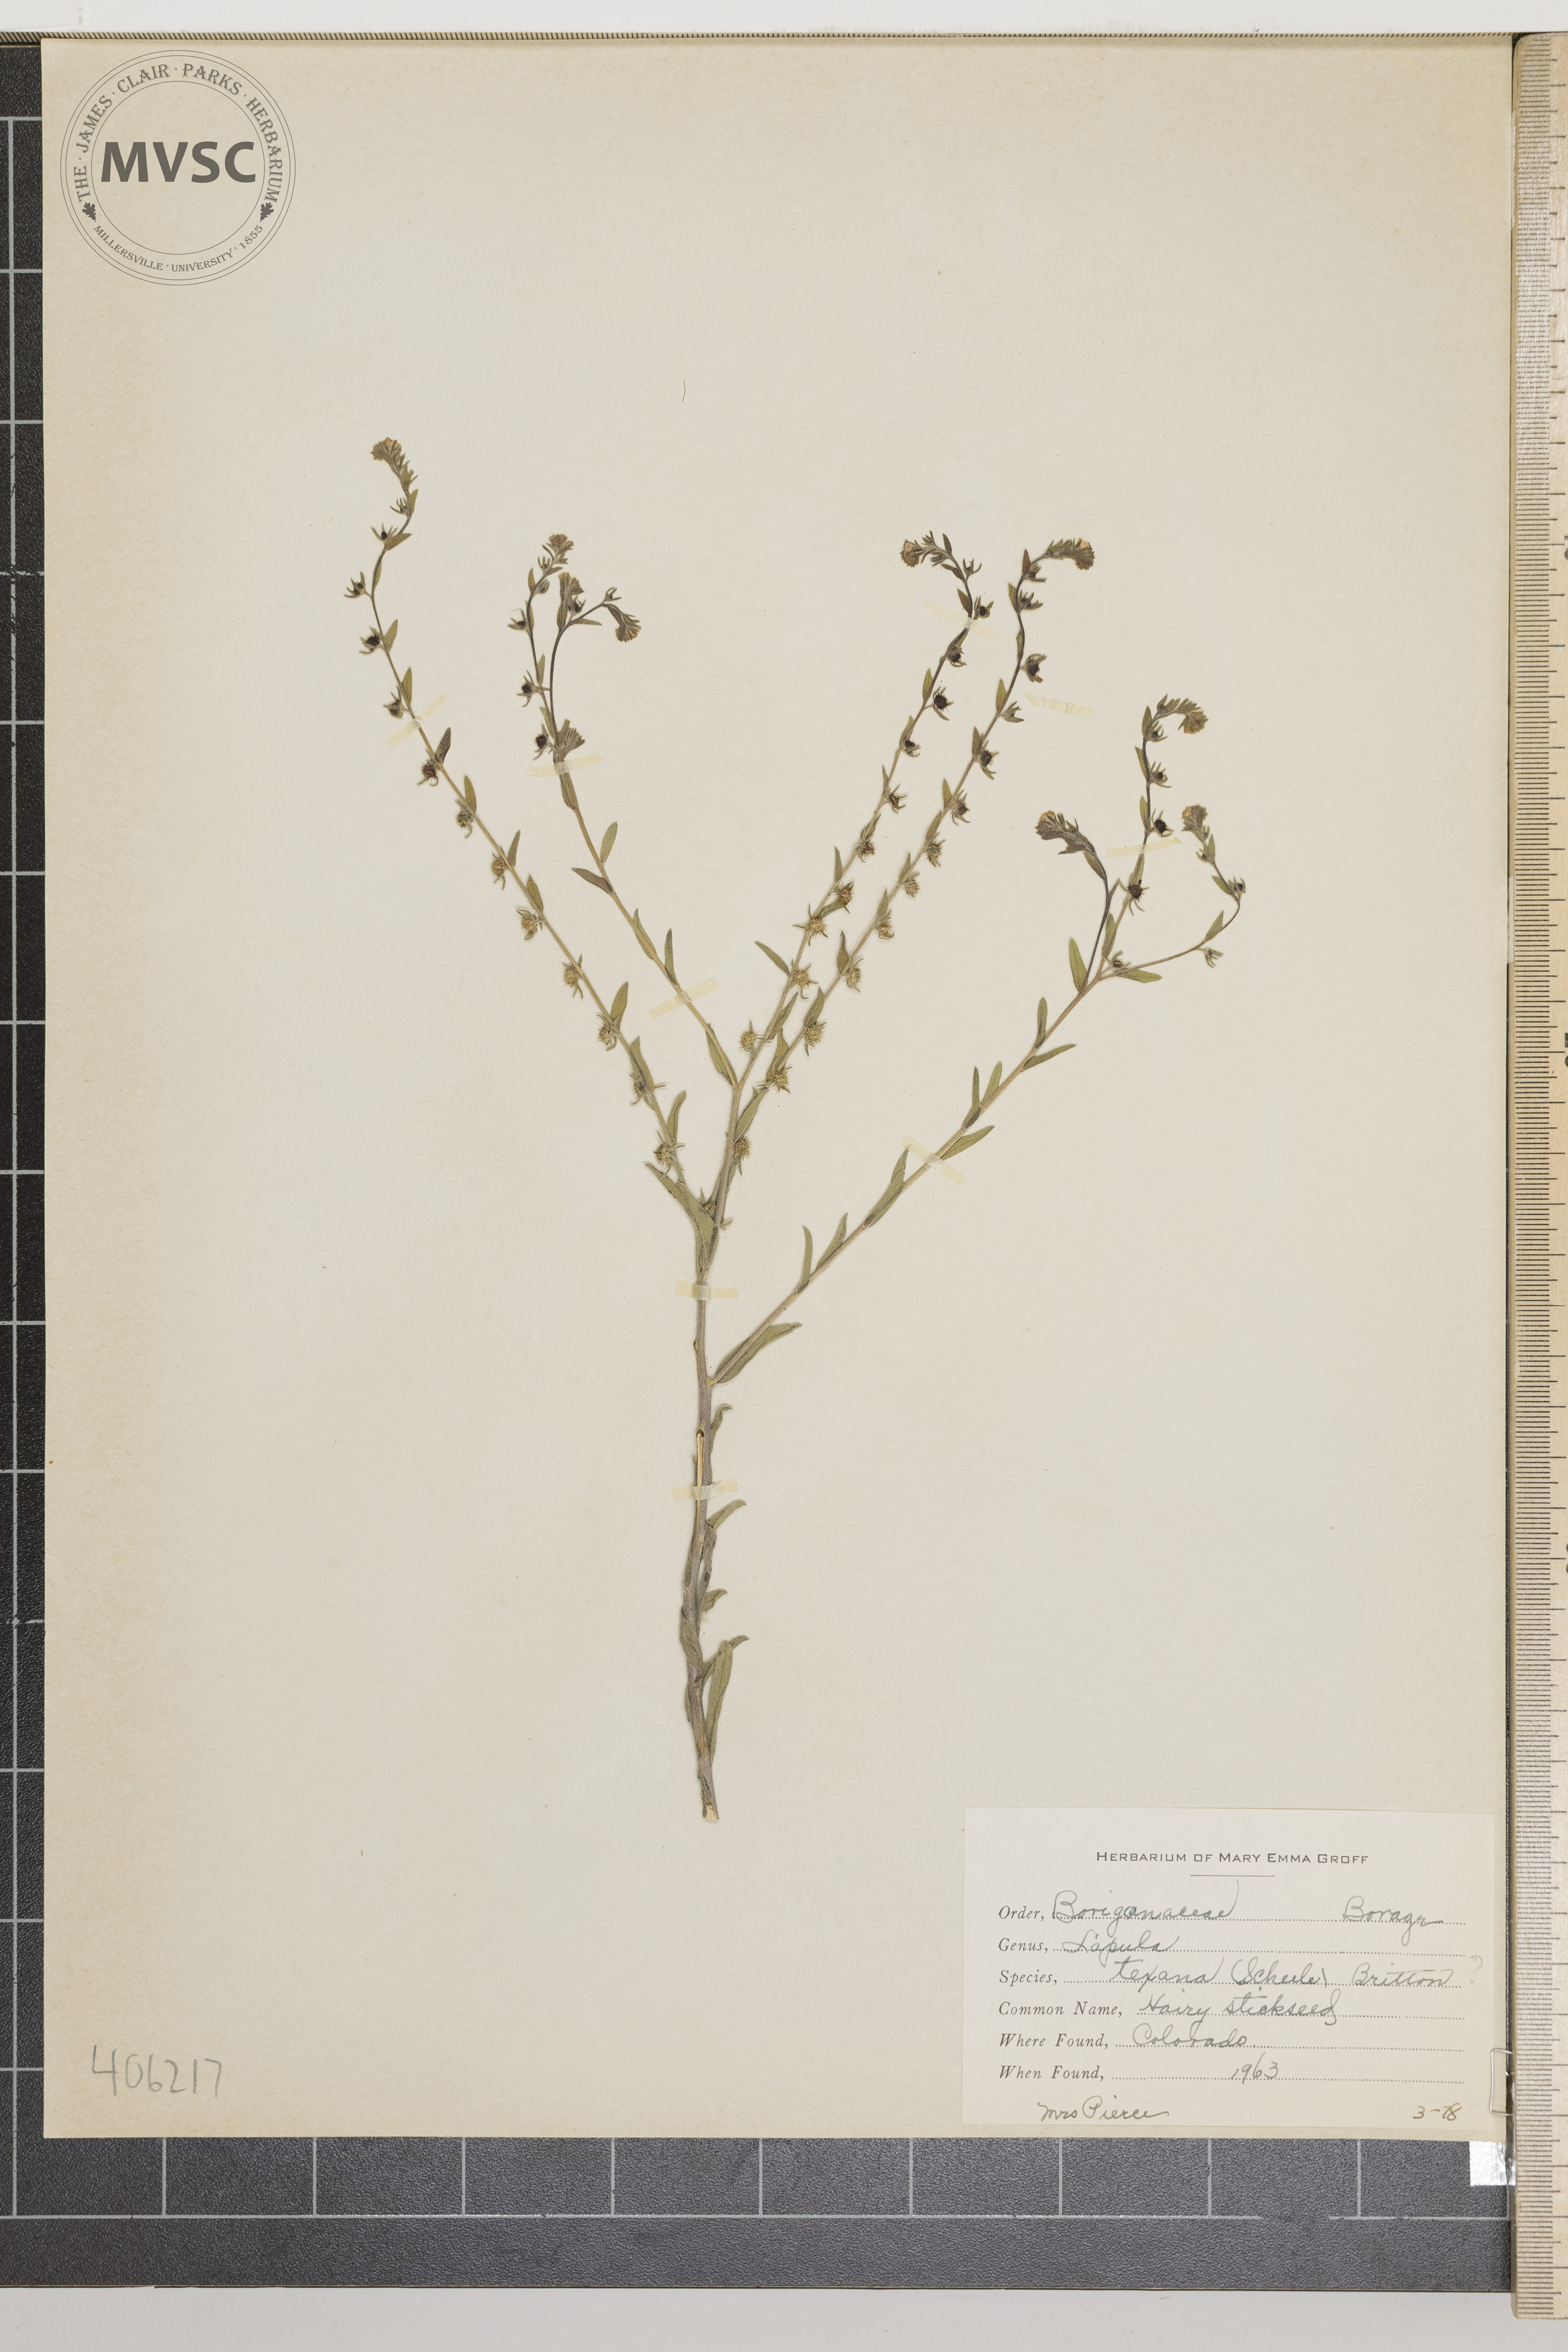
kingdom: Plantae
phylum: Tracheophyta
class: Magnoliopsida
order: Boraginales
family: Boraginaceae
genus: Lappula
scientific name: Lappula texana
